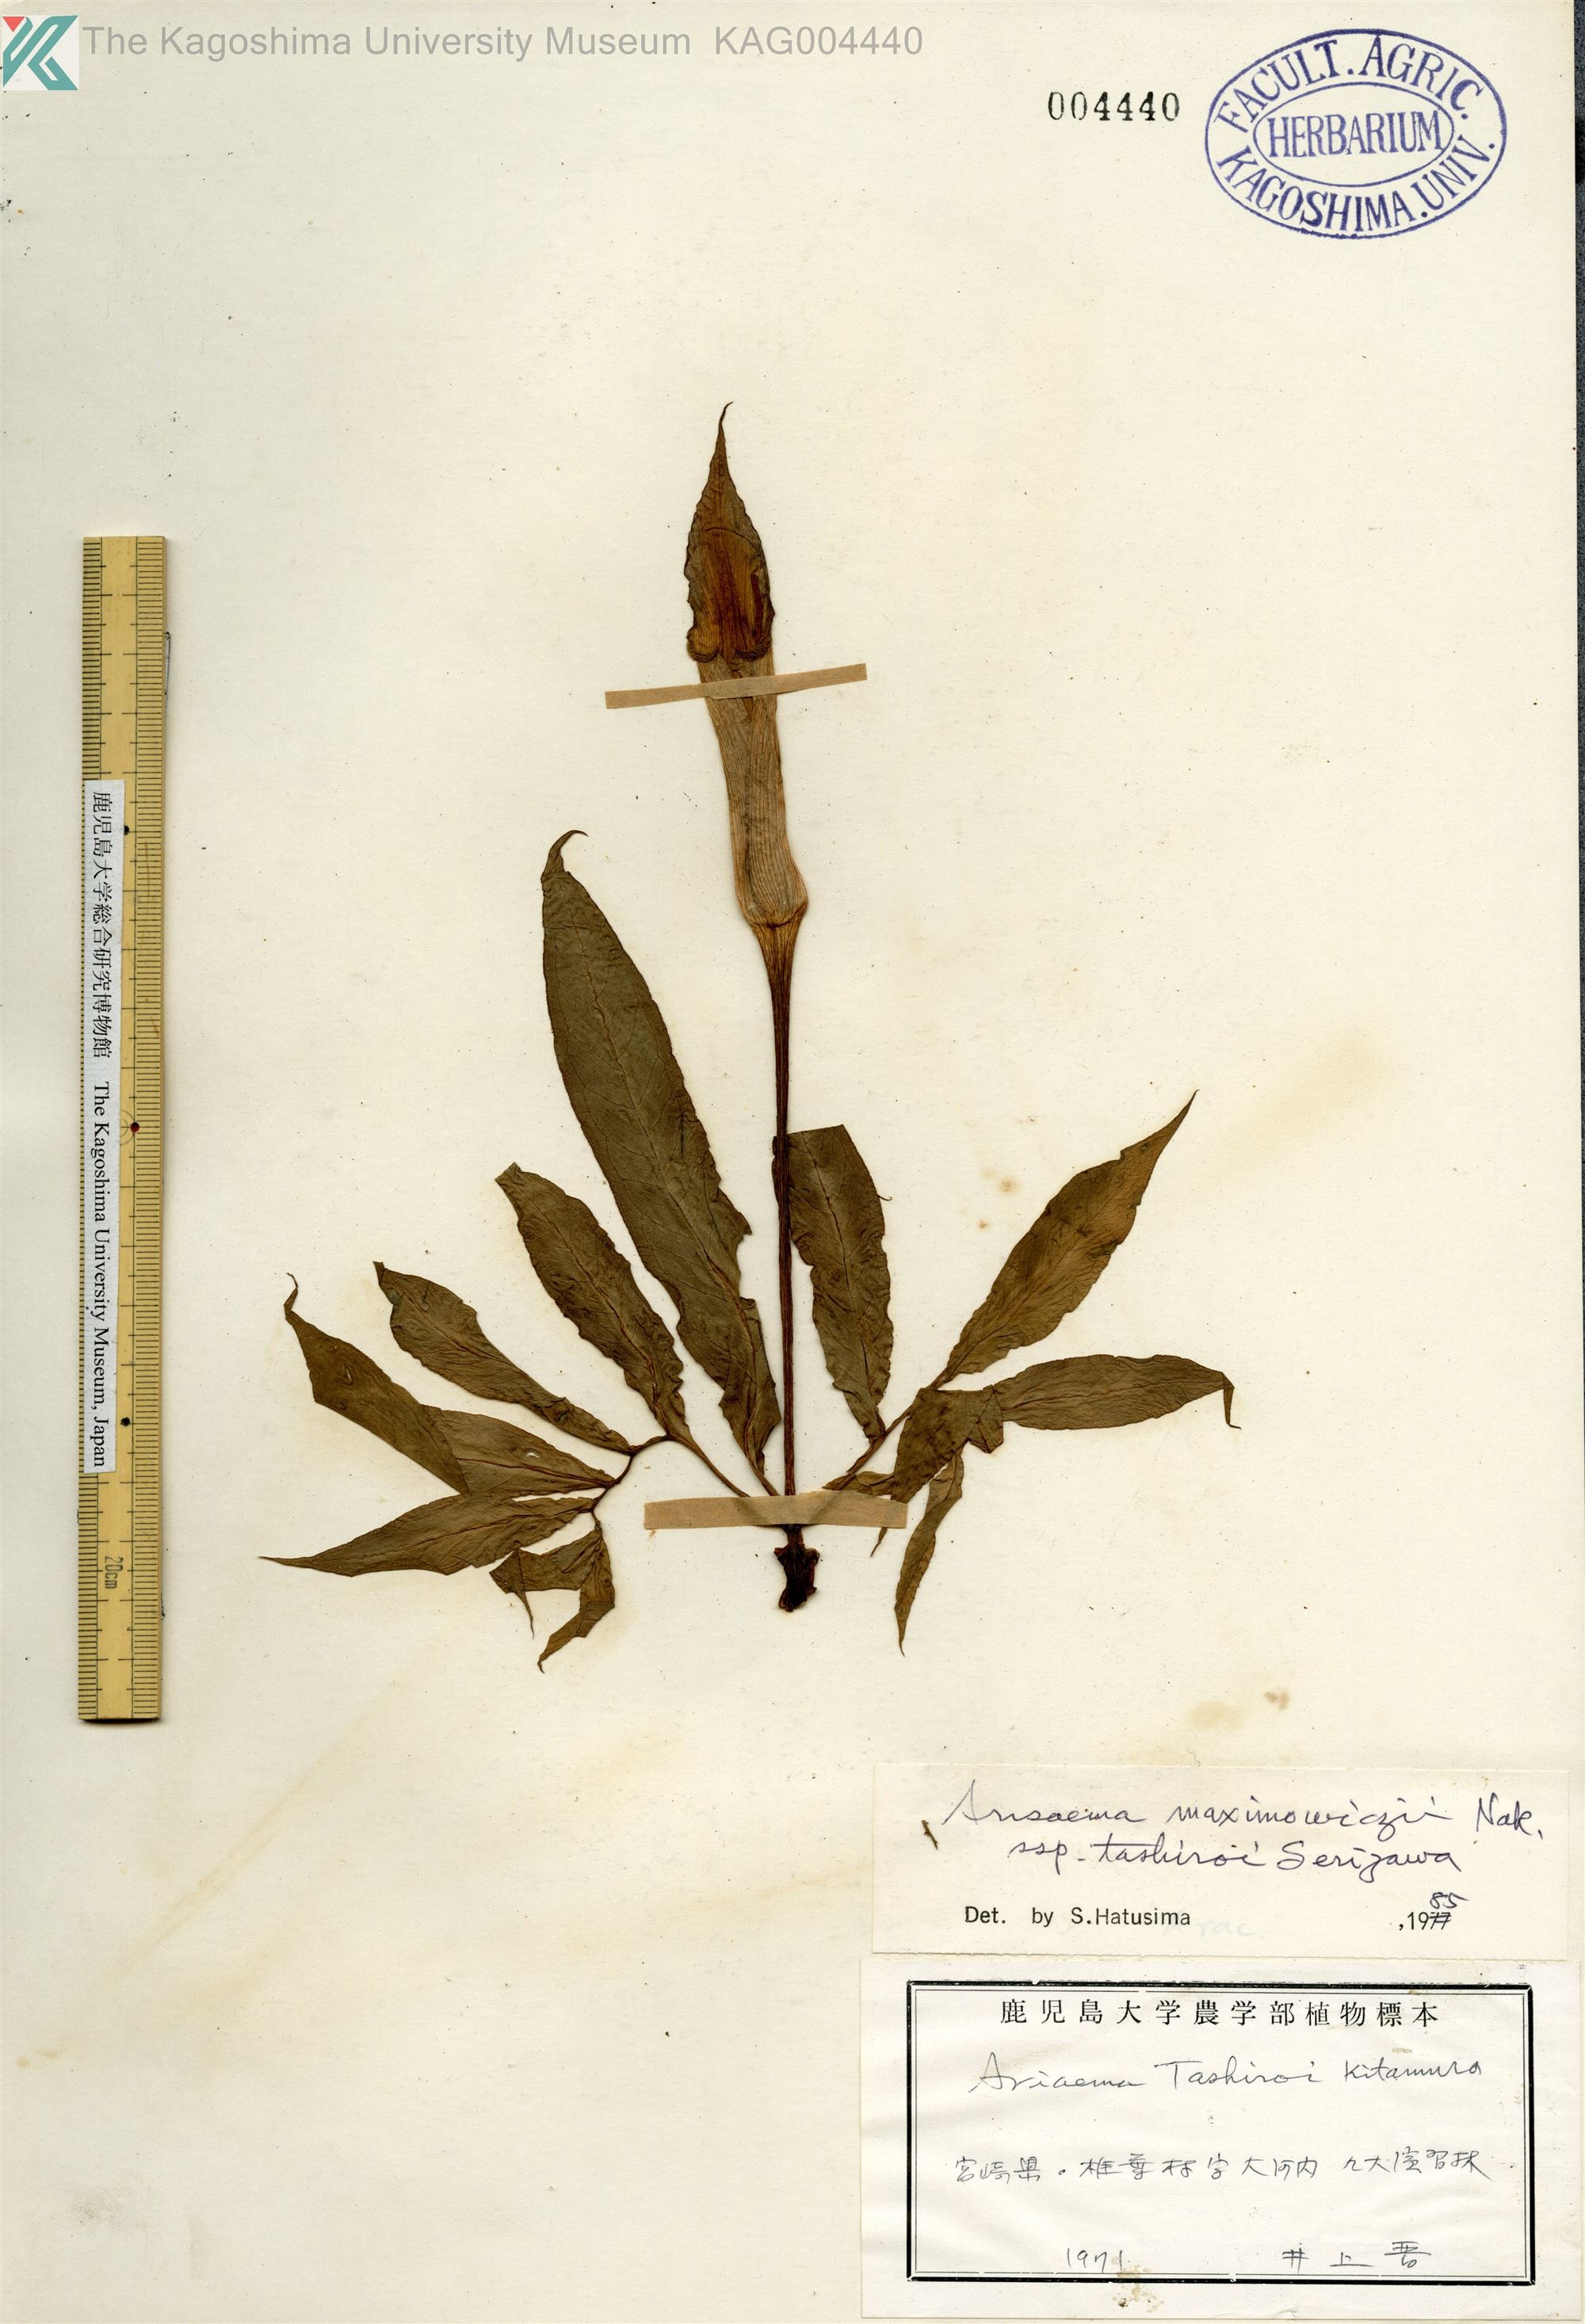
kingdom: Plantae
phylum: Tracheophyta
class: Liliopsida
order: Alismatales
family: Araceae
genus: Arisaema
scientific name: Arisaema tashiroi
